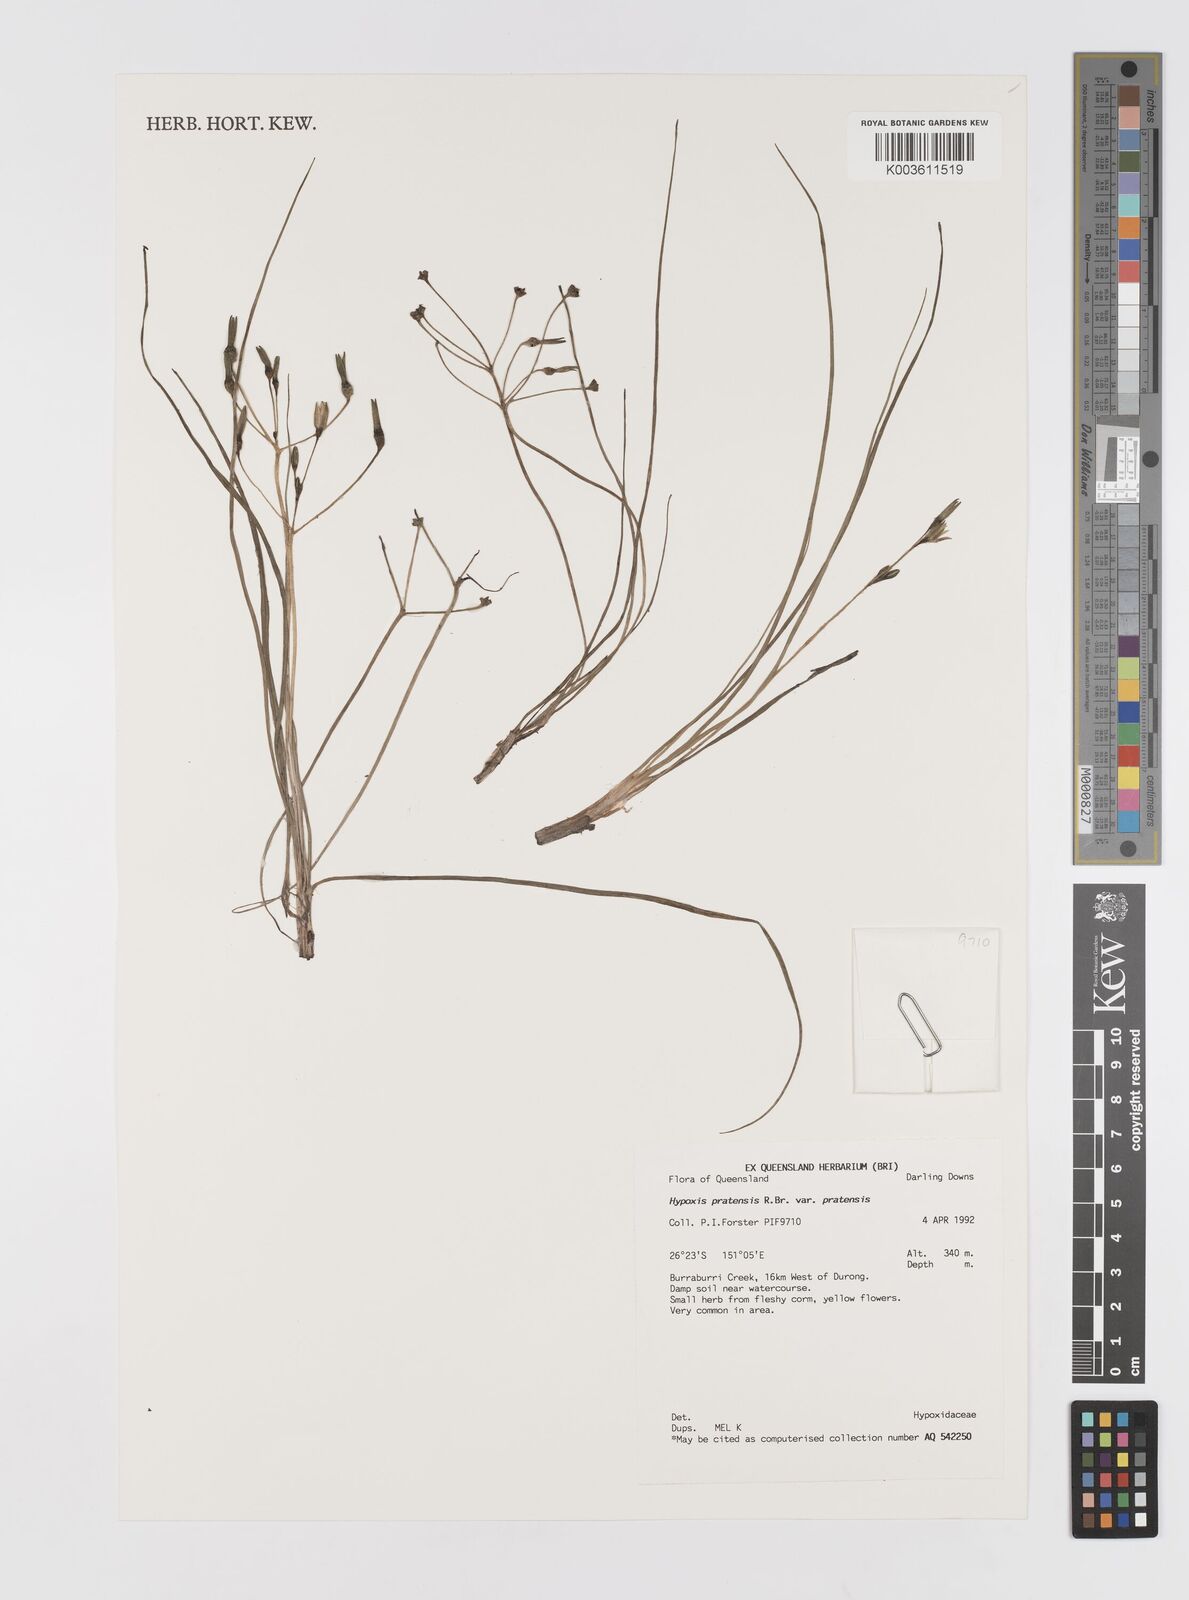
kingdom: Plantae
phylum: Tracheophyta
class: Liliopsida
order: Asparagales
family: Hypoxidaceae
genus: Hypoxis
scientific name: Hypoxis pratensis
